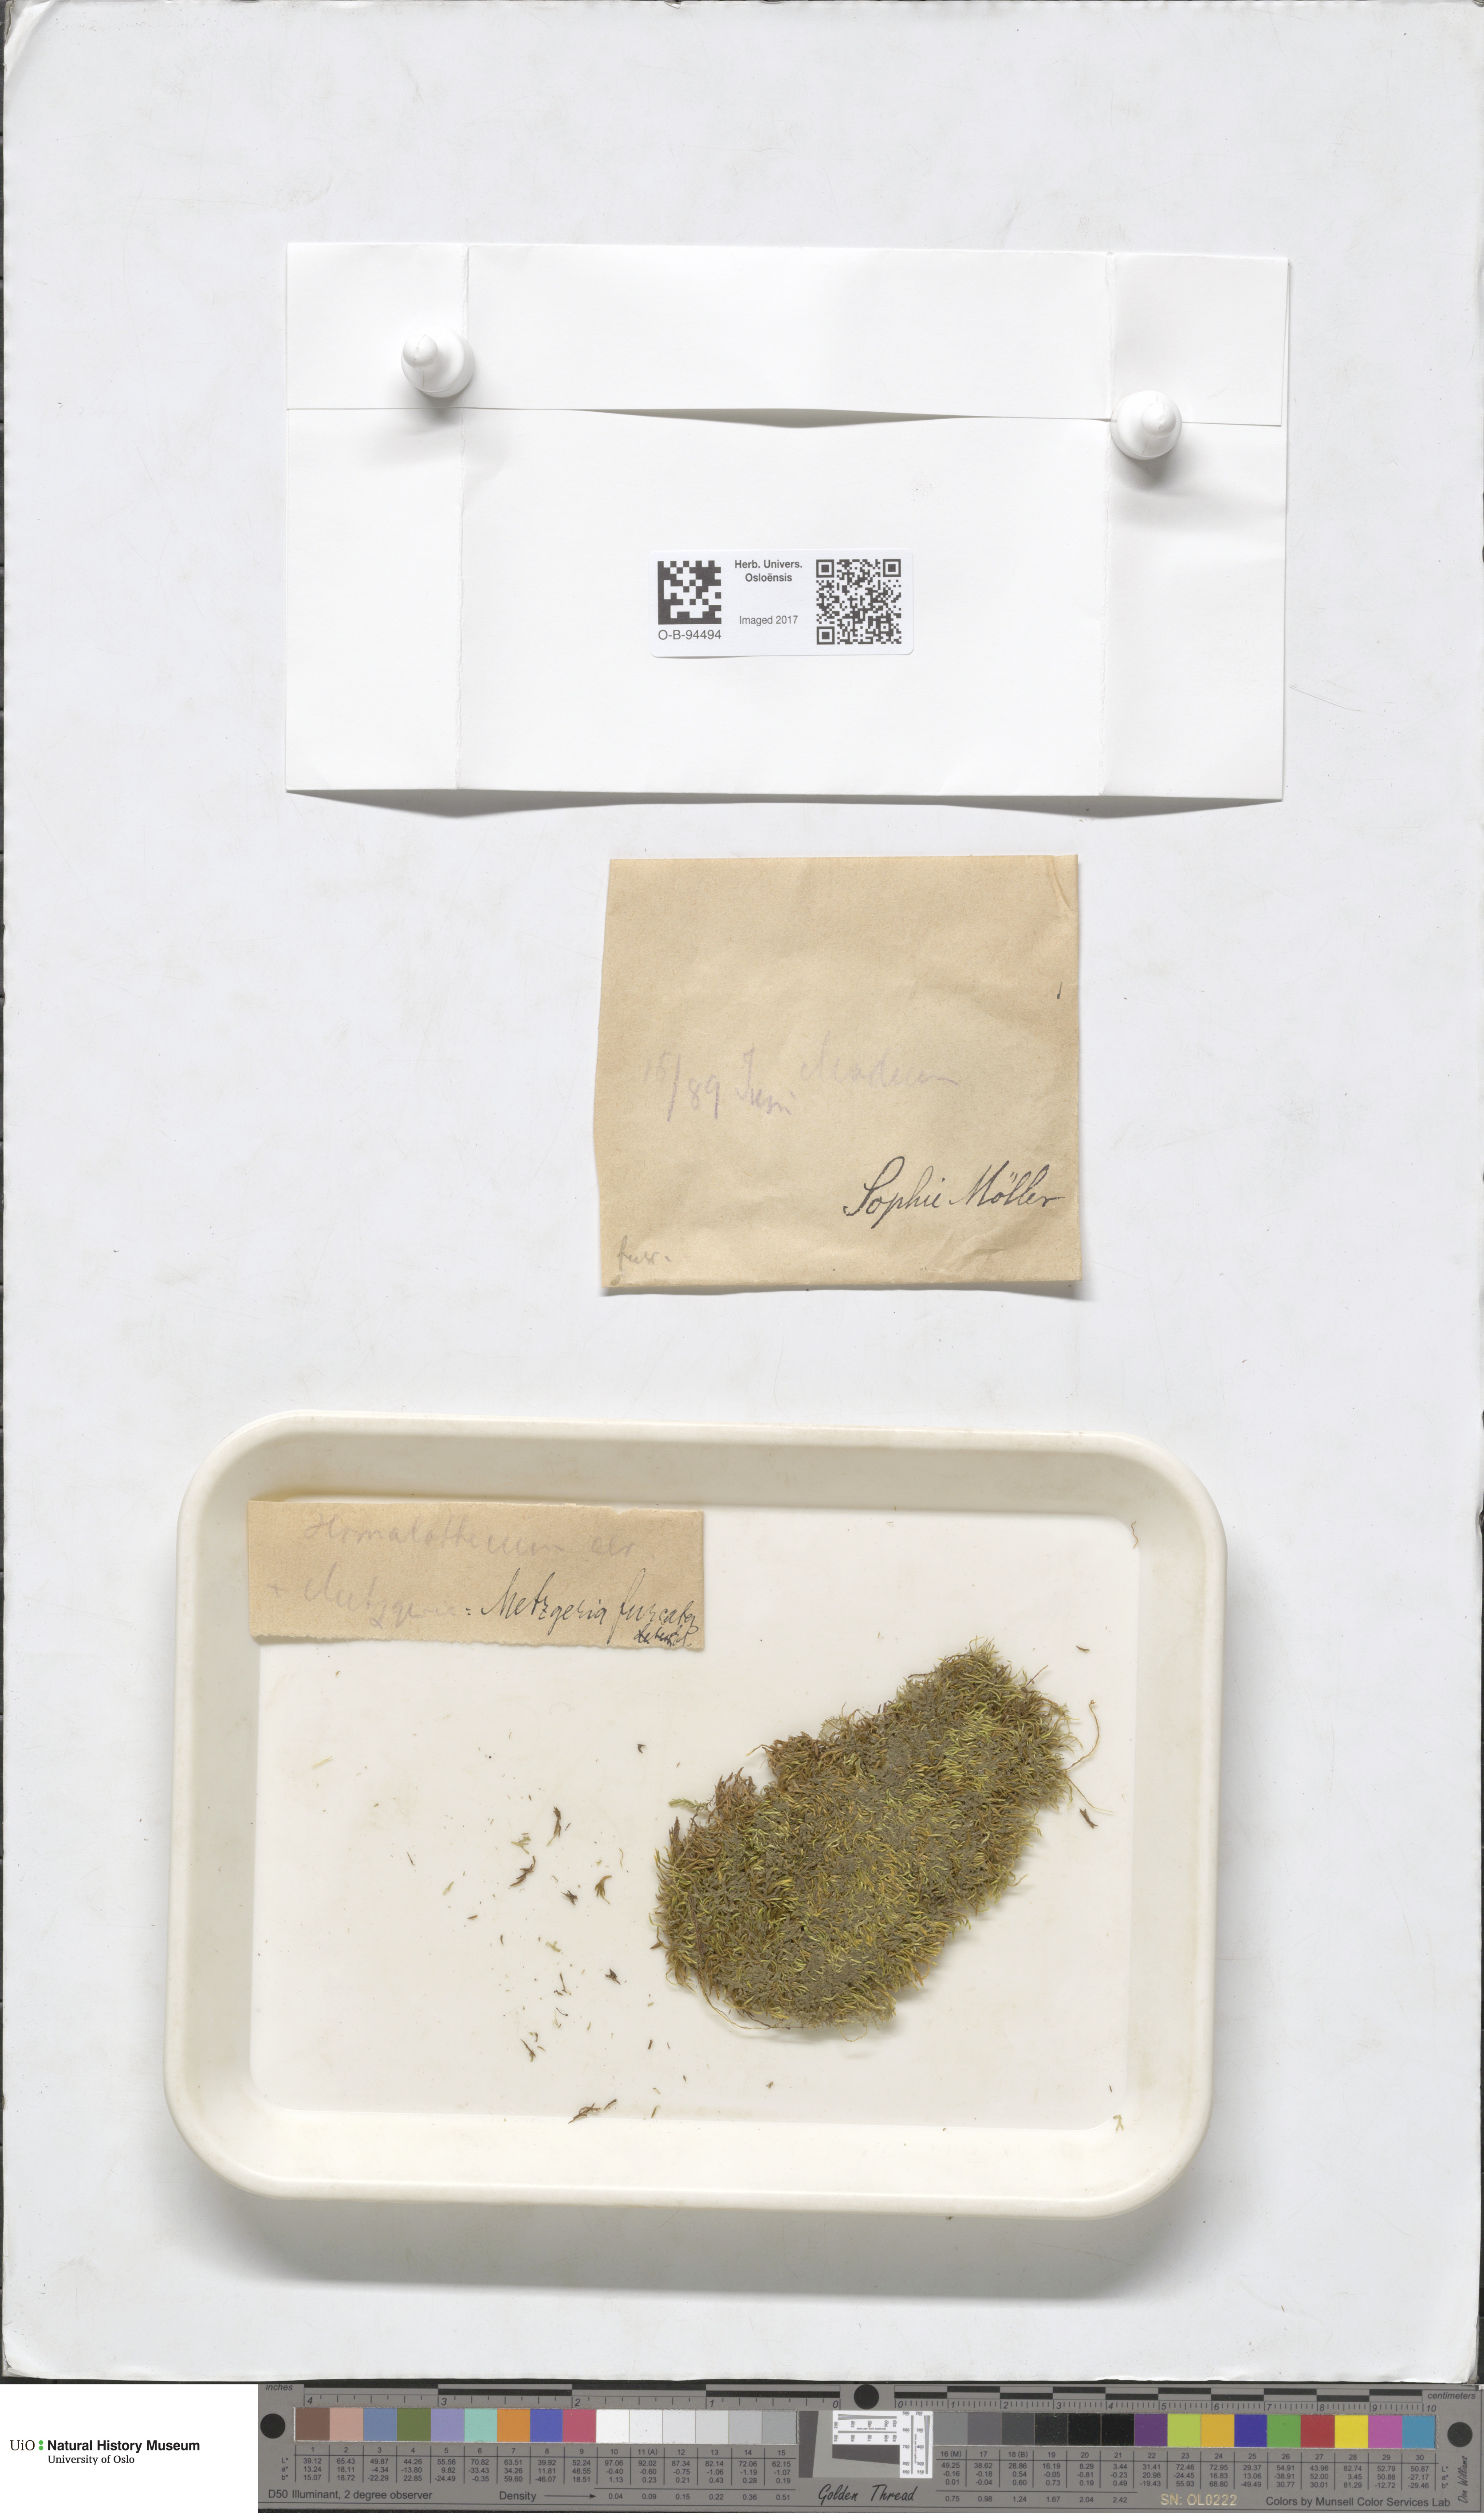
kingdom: Plantae
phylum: Marchantiophyta
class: Jungermanniopsida
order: Metzgeriales
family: Metzgeriaceae
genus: Metzgeria
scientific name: Metzgeria furcata
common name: Forked veilwort
